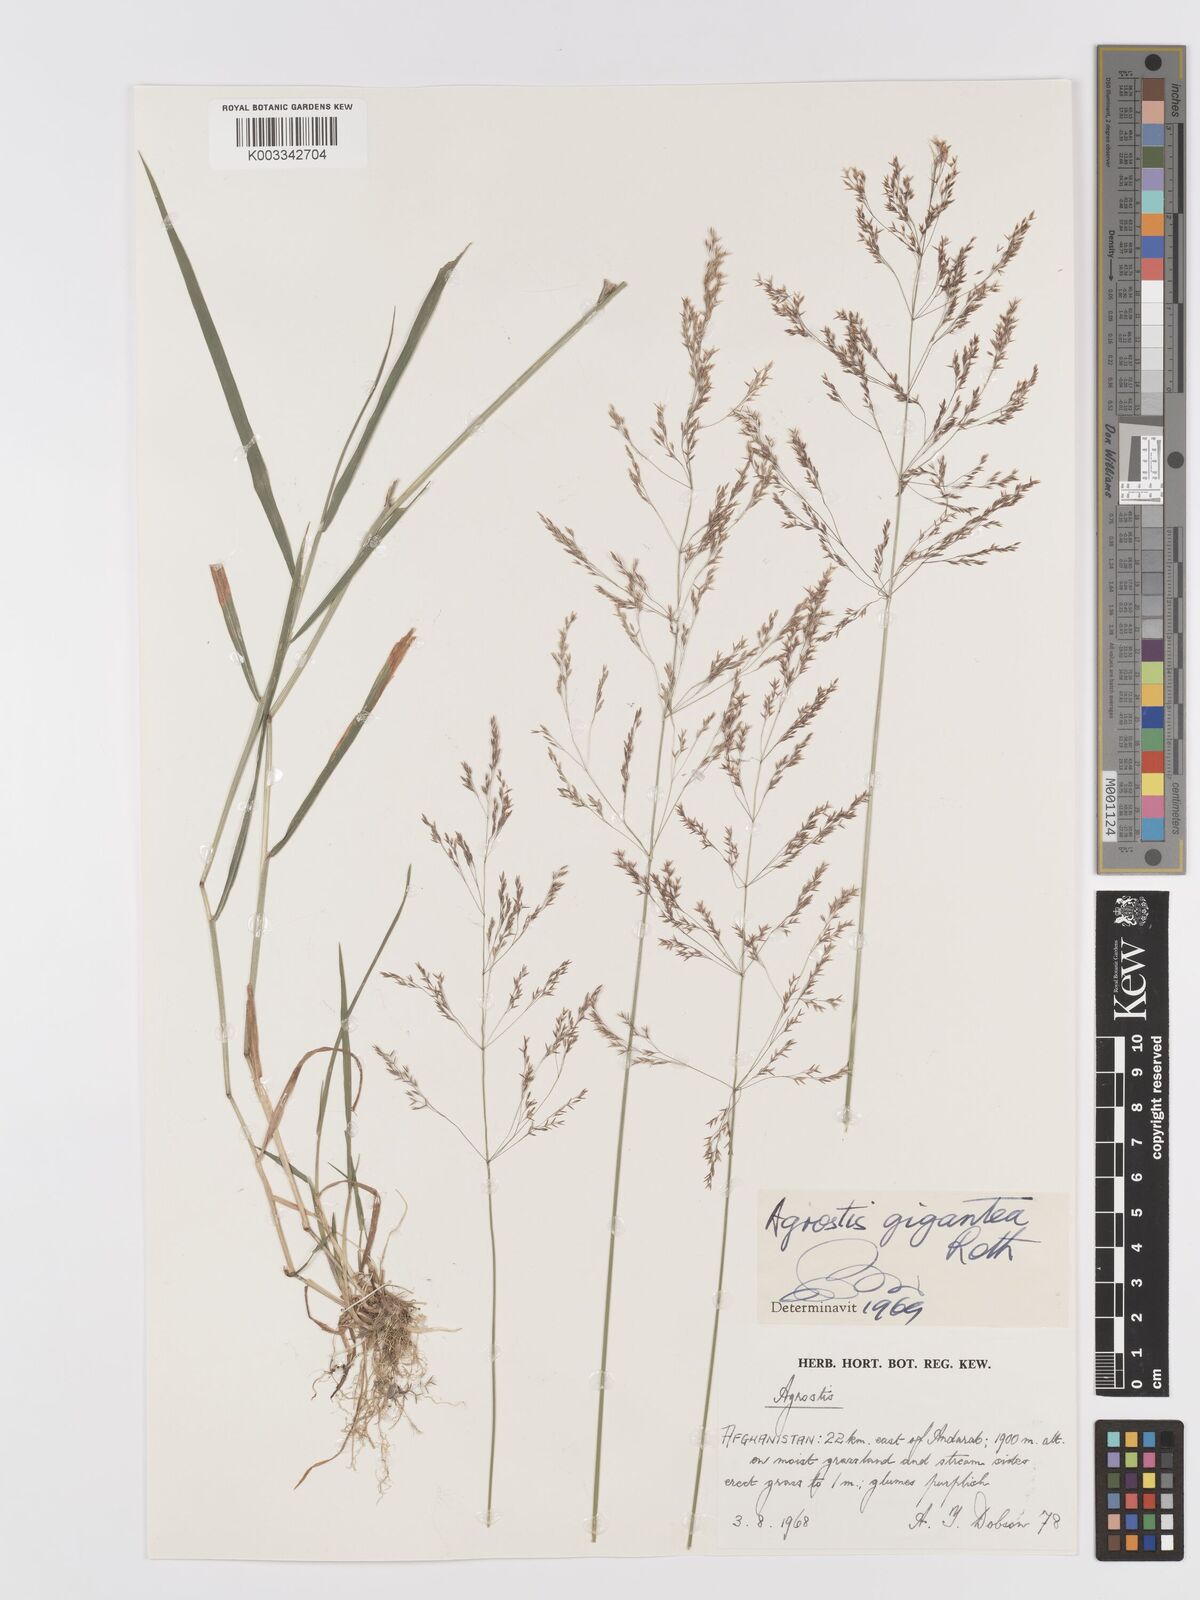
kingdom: Plantae
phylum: Tracheophyta
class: Liliopsida
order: Poales
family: Poaceae
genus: Agrostis
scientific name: Agrostis gigantea
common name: Black bent
